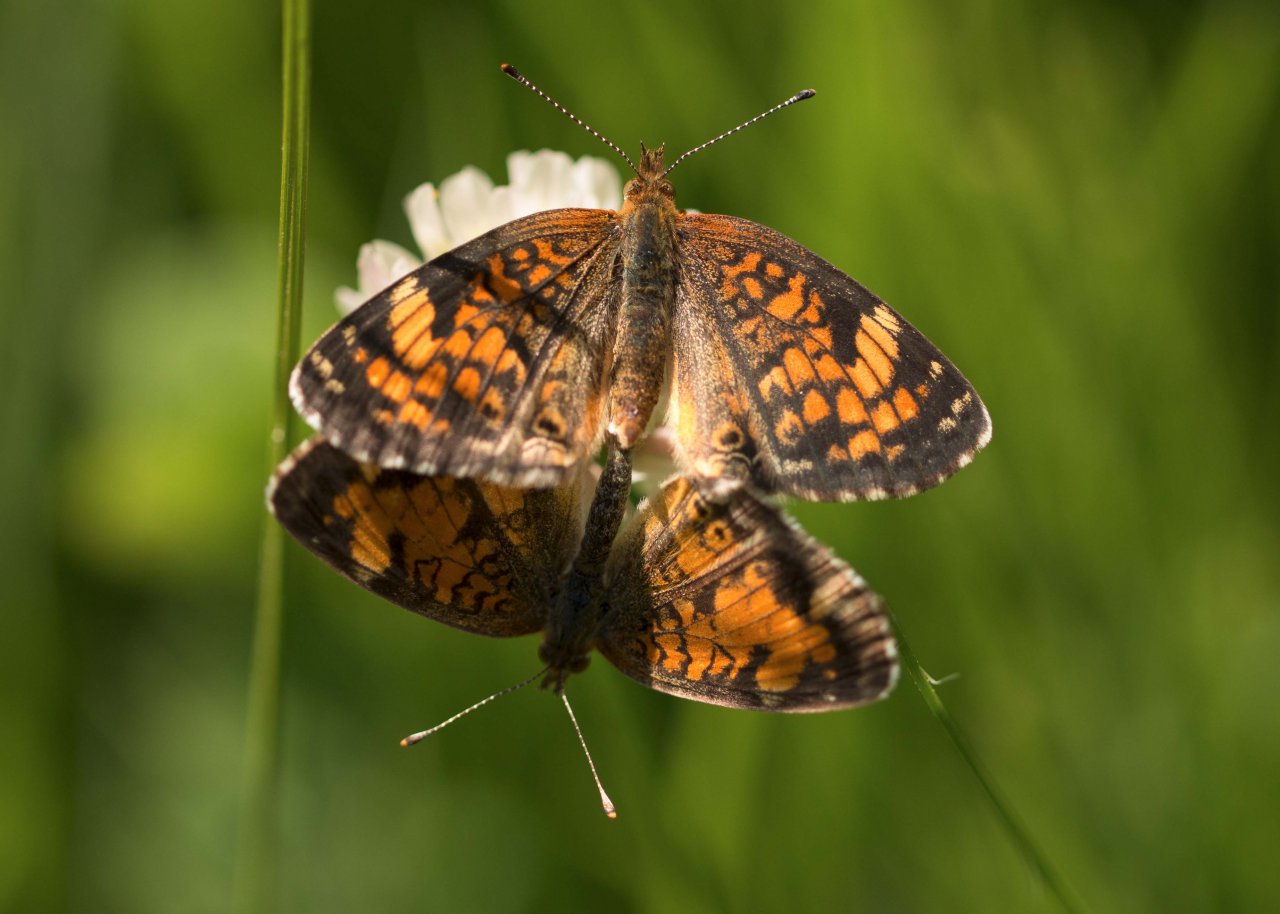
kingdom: Animalia
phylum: Arthropoda
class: Insecta
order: Lepidoptera
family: Nymphalidae
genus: Phyciodes
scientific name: Phyciodes tharos
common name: Northern Crescent
